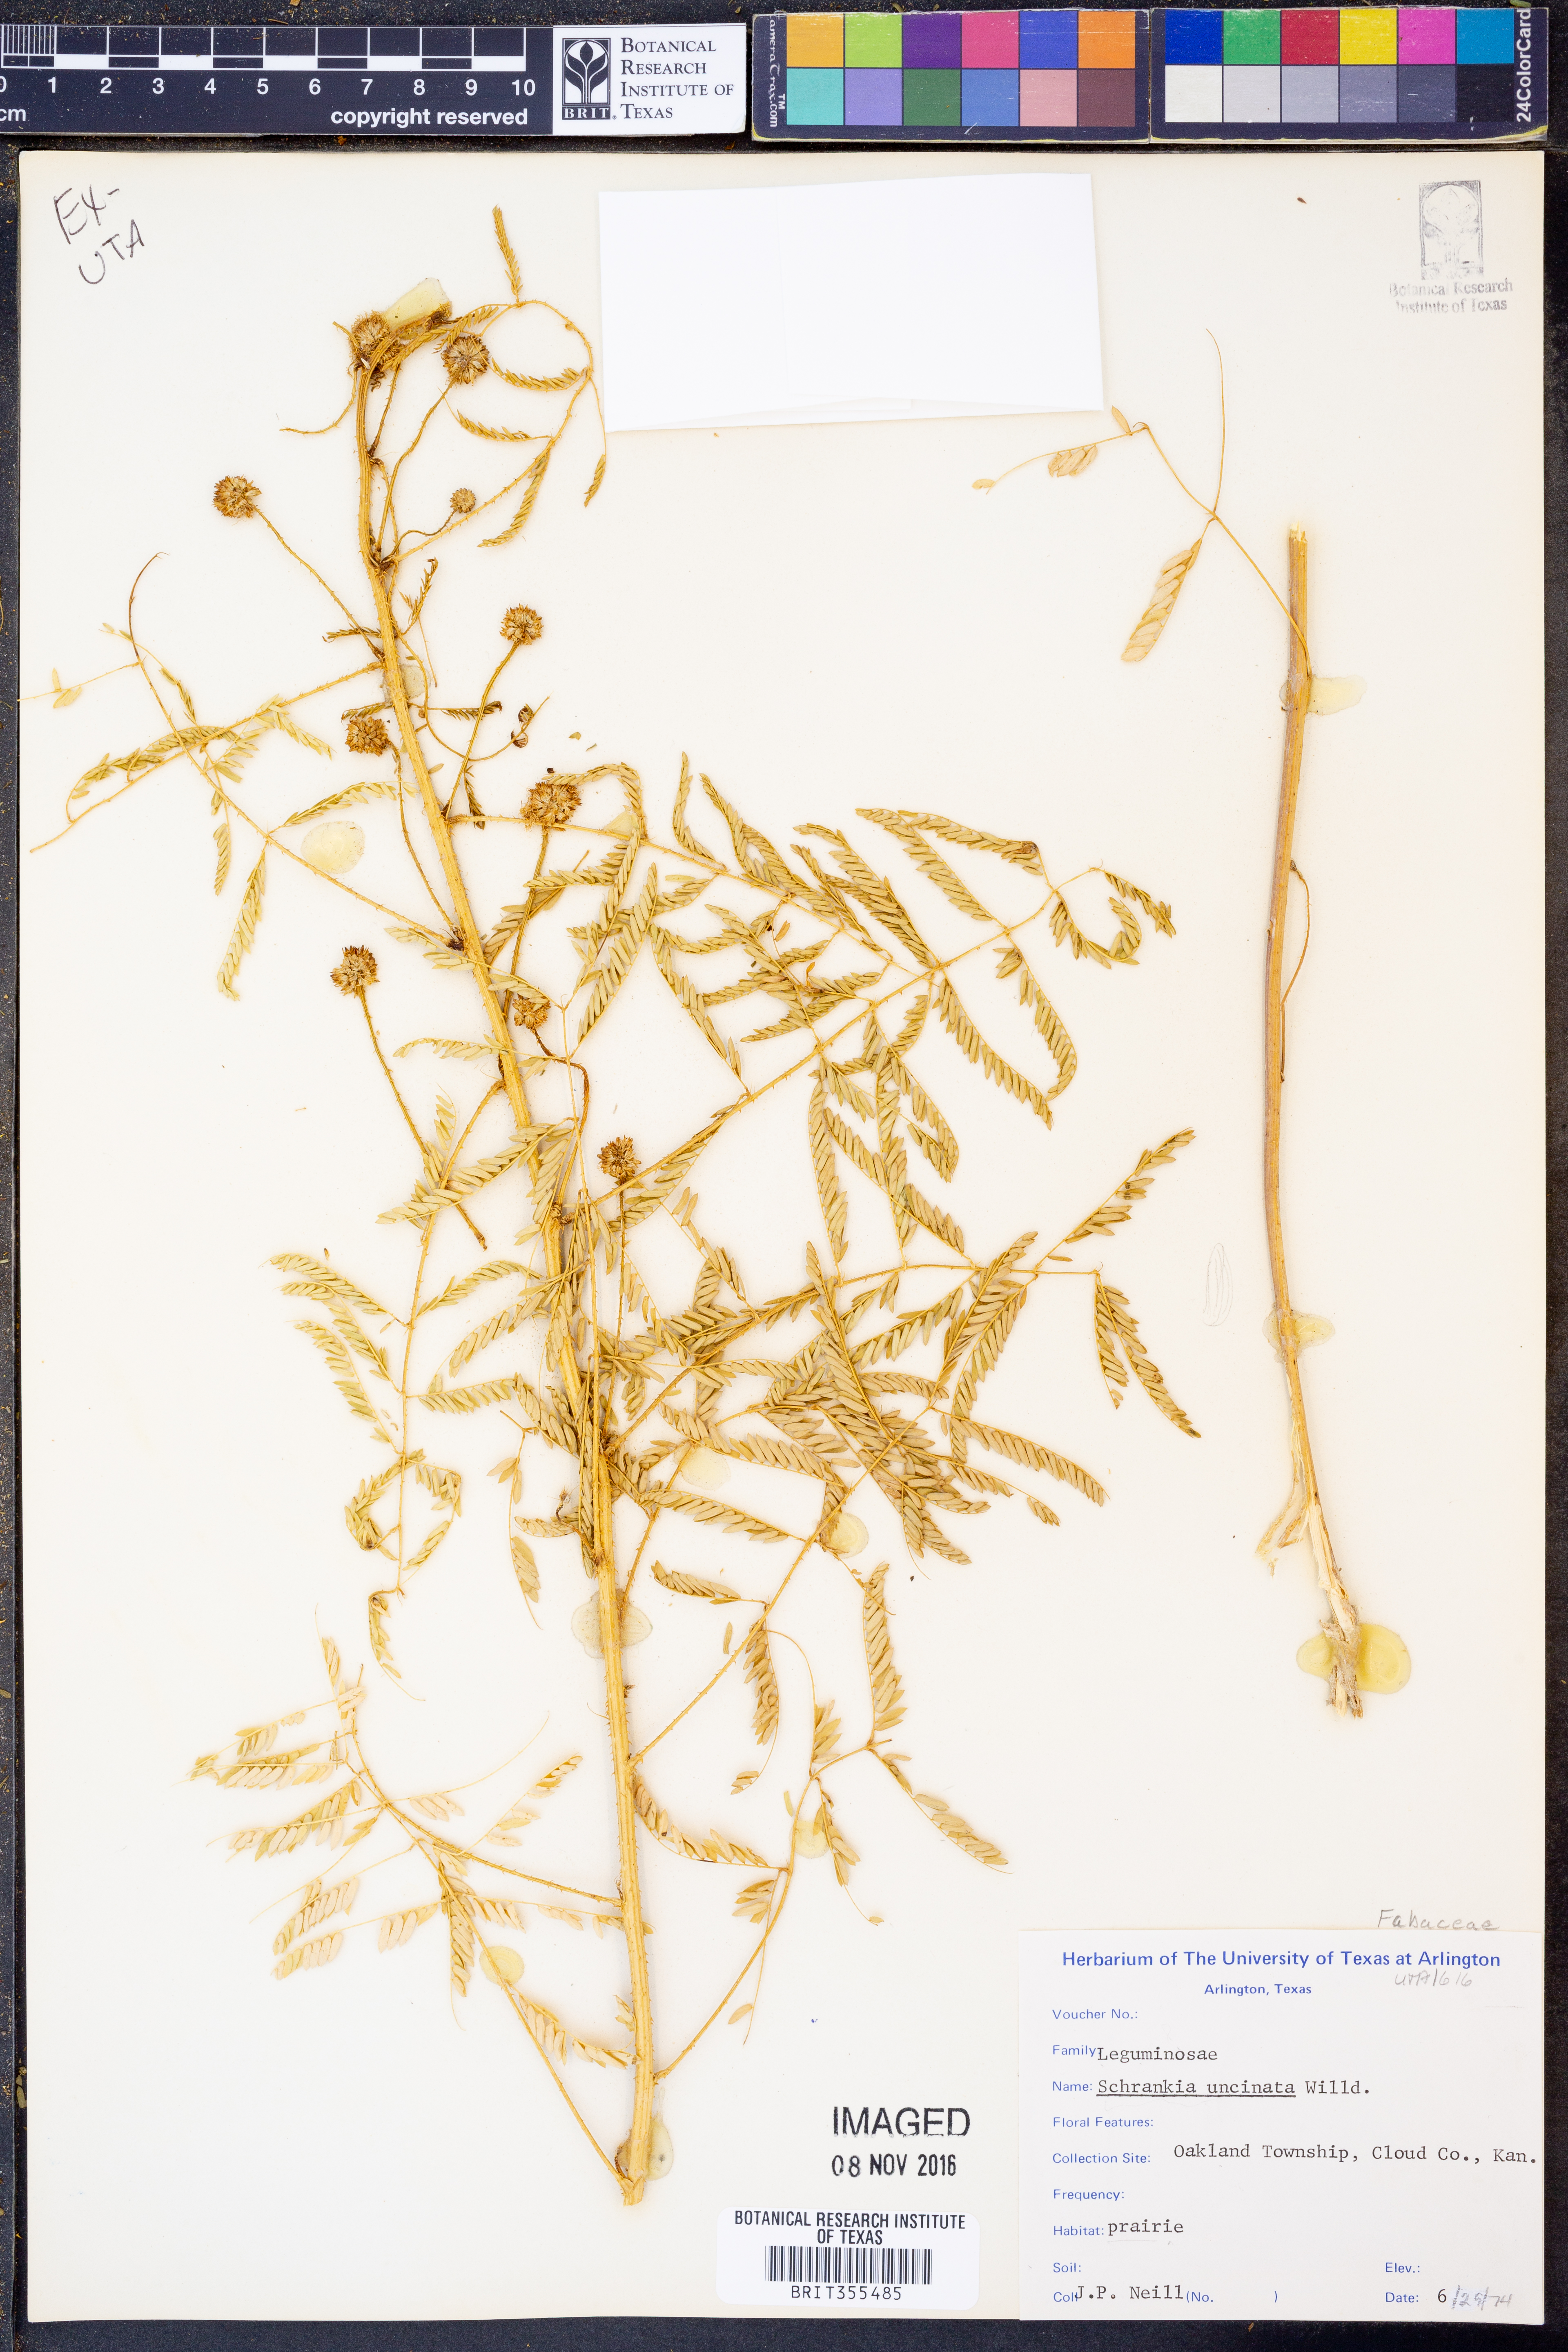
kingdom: Plantae
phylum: Tracheophyta
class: Magnoliopsida
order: Fabales
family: Fabaceae
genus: Mimosa
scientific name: Mimosa quadrivalvis
